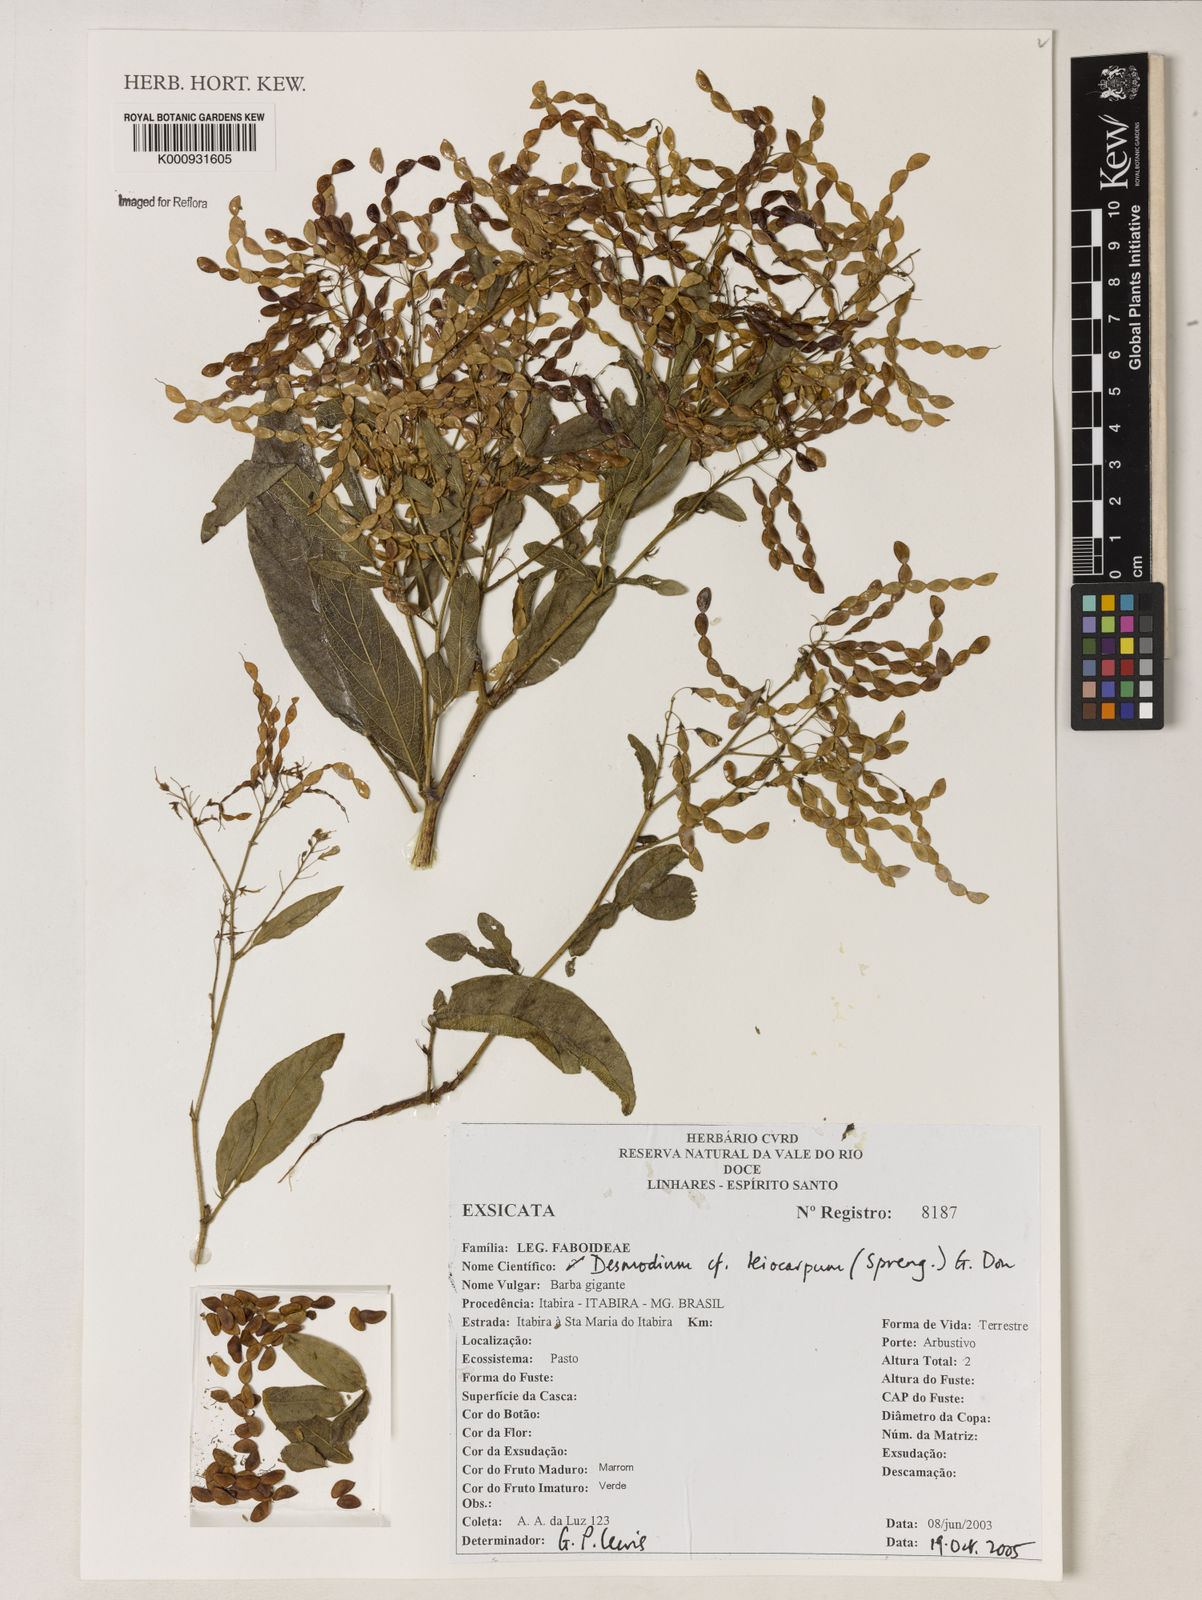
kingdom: Plantae
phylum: Tracheophyta
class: Magnoliopsida
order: Fabales
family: Fabaceae
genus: Desmodium
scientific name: Desmodium leiocarpum
